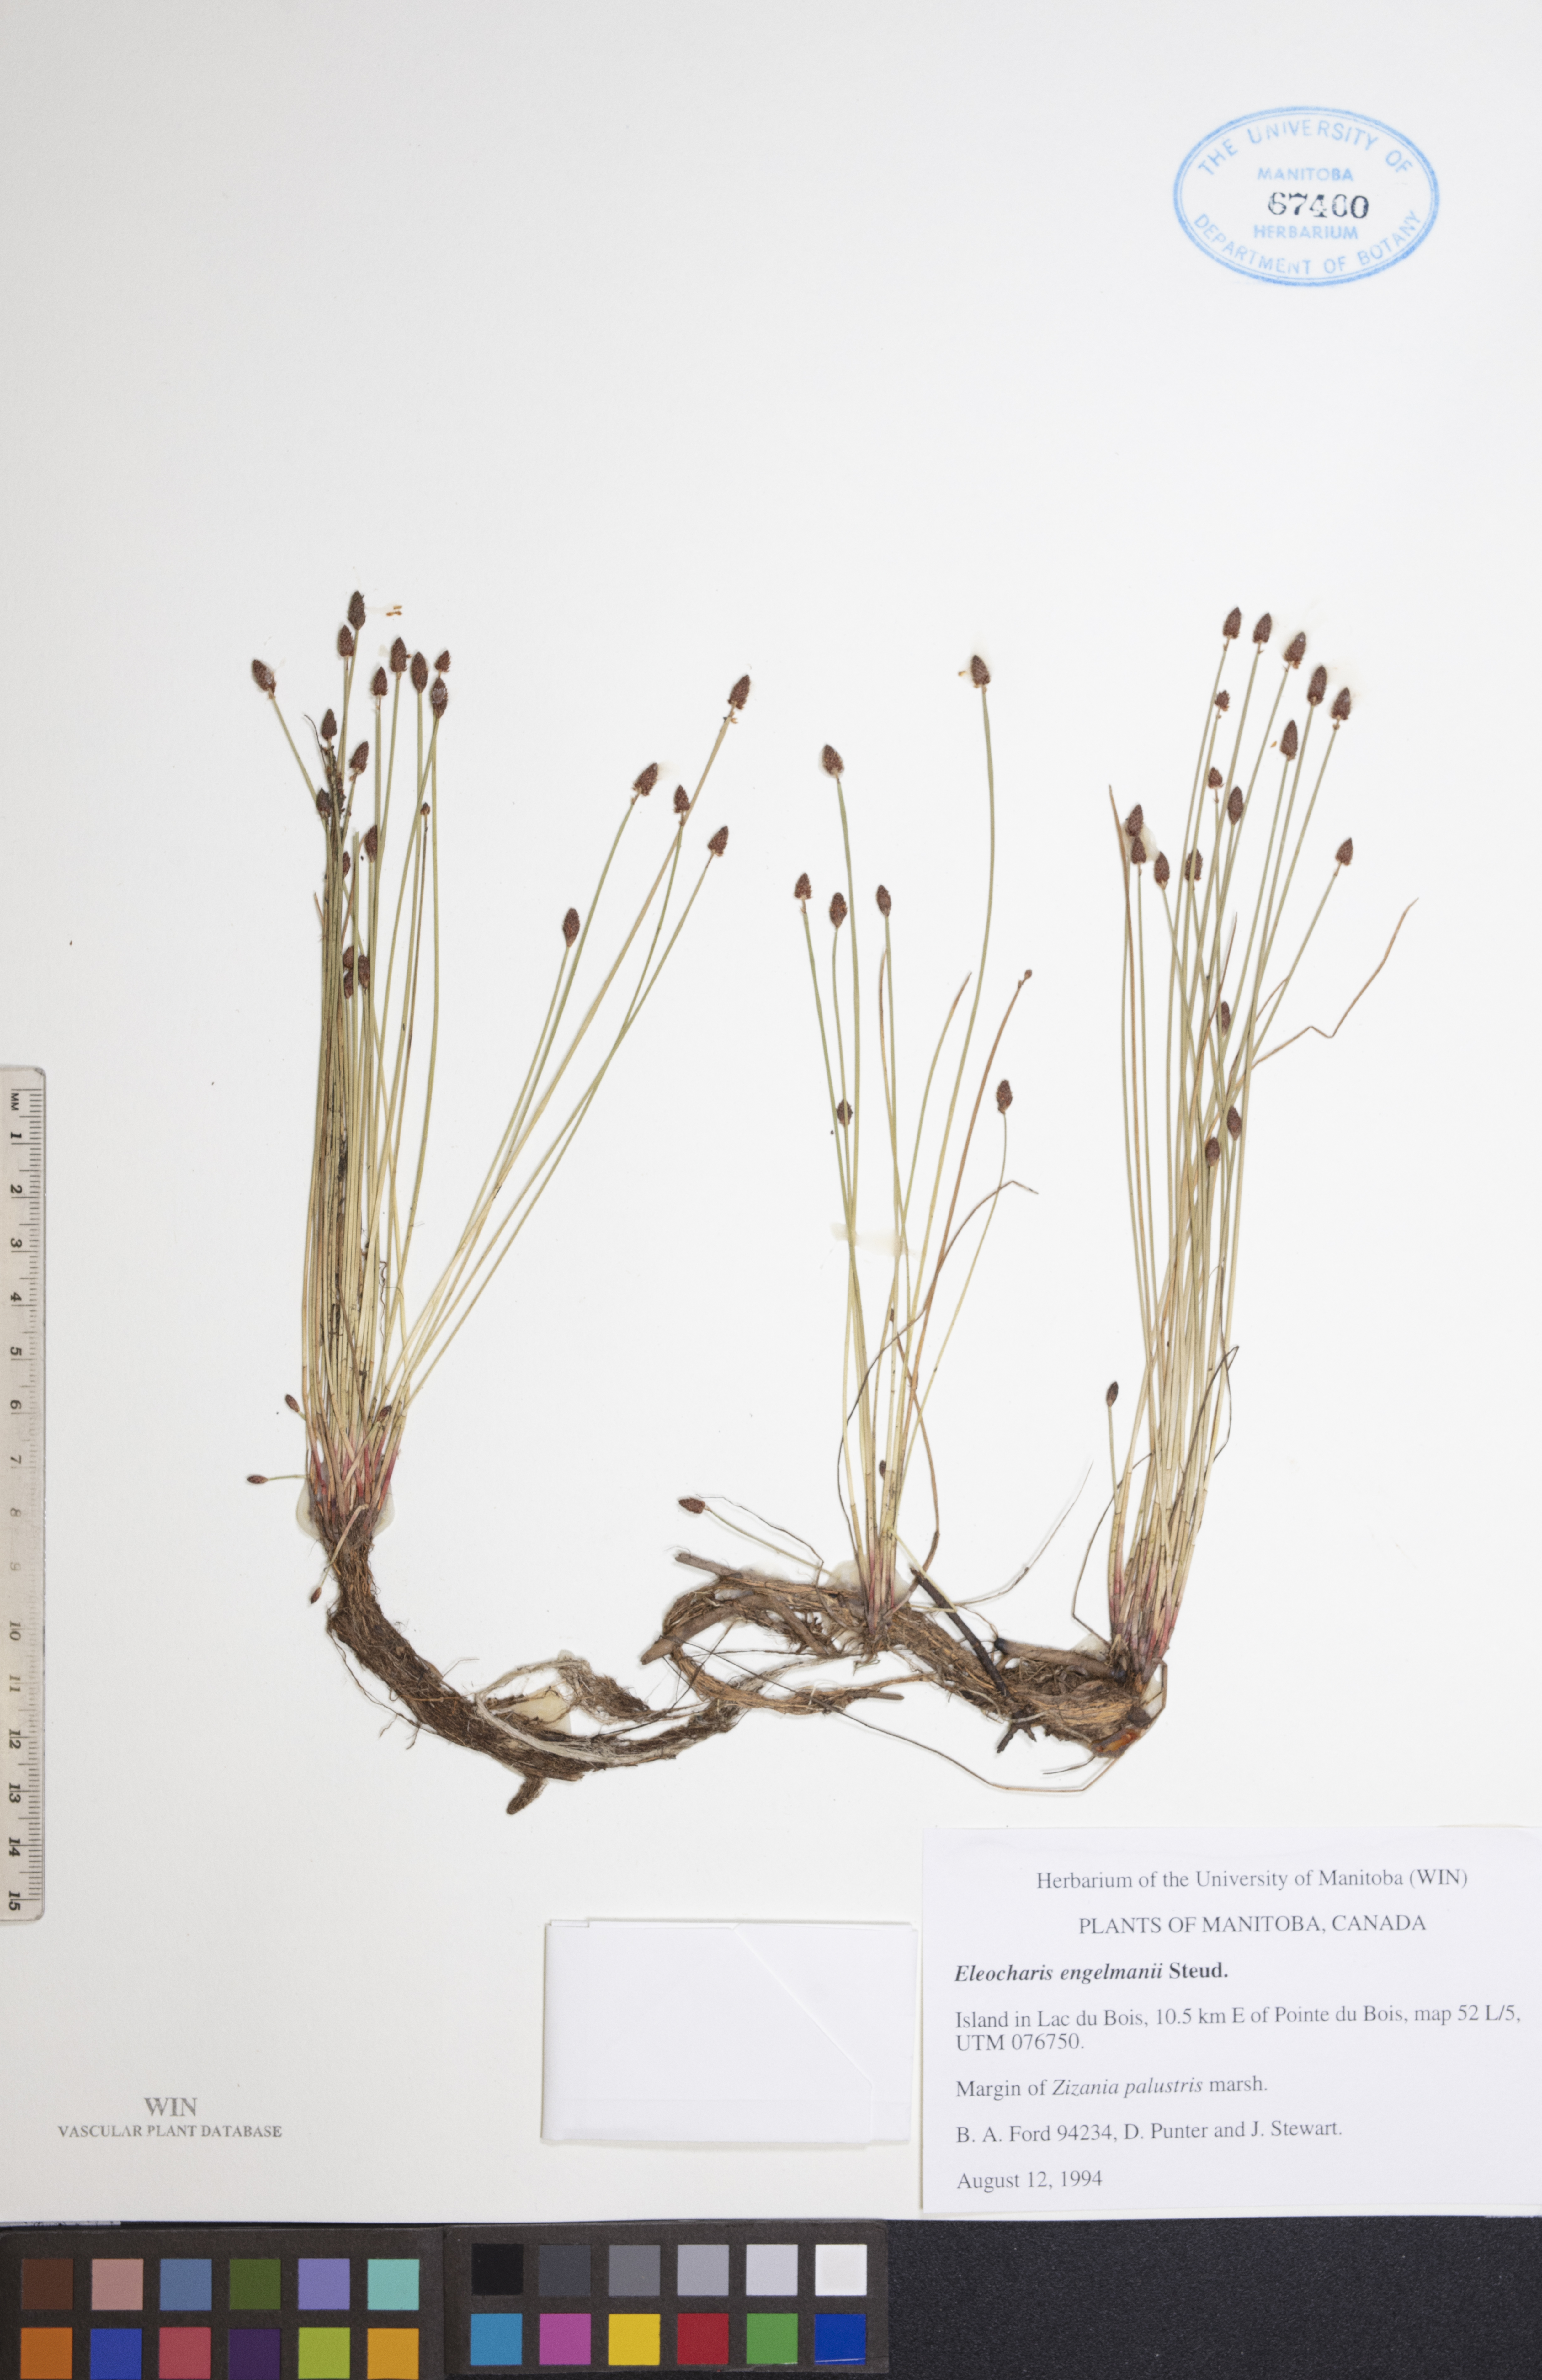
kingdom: Plantae
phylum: Tracheophyta
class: Liliopsida
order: Poales
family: Cyperaceae
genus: Eleocharis
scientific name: Eleocharis engelmannii
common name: Engelmann's spikerush
